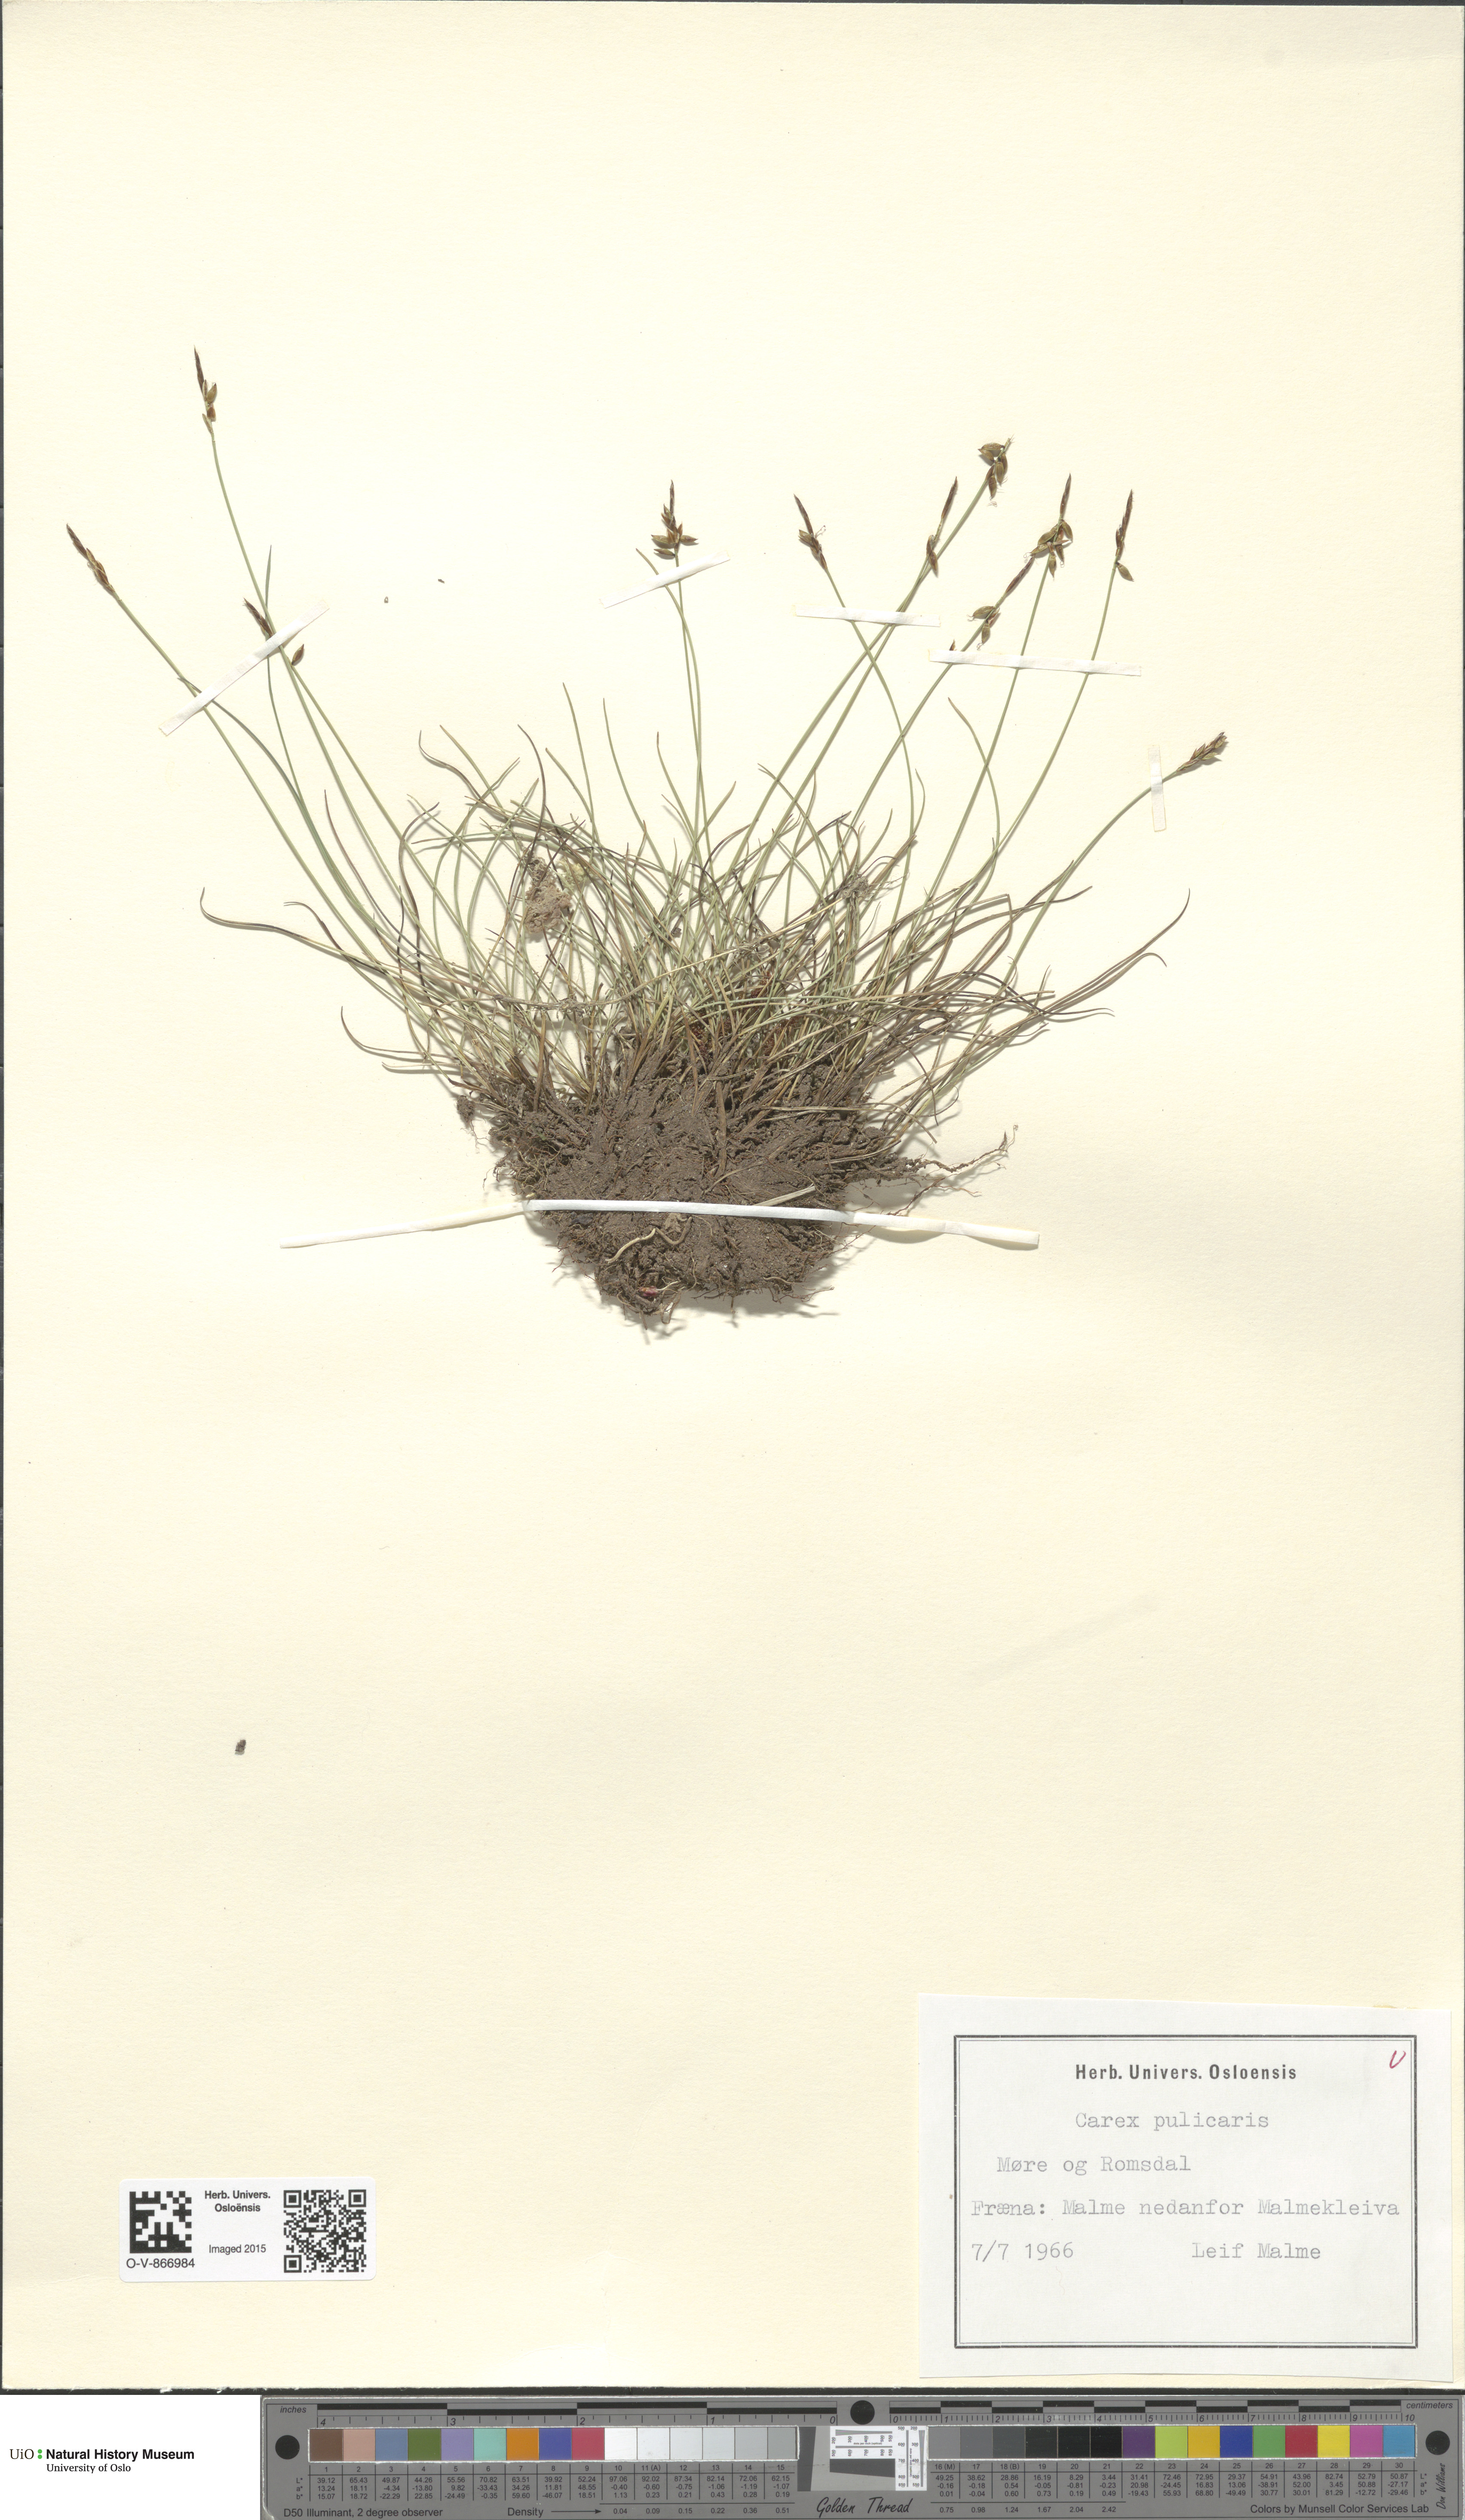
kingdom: Plantae
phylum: Tracheophyta
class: Liliopsida
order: Poales
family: Cyperaceae
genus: Carex
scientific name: Carex pulicaris
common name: Flea sedge
